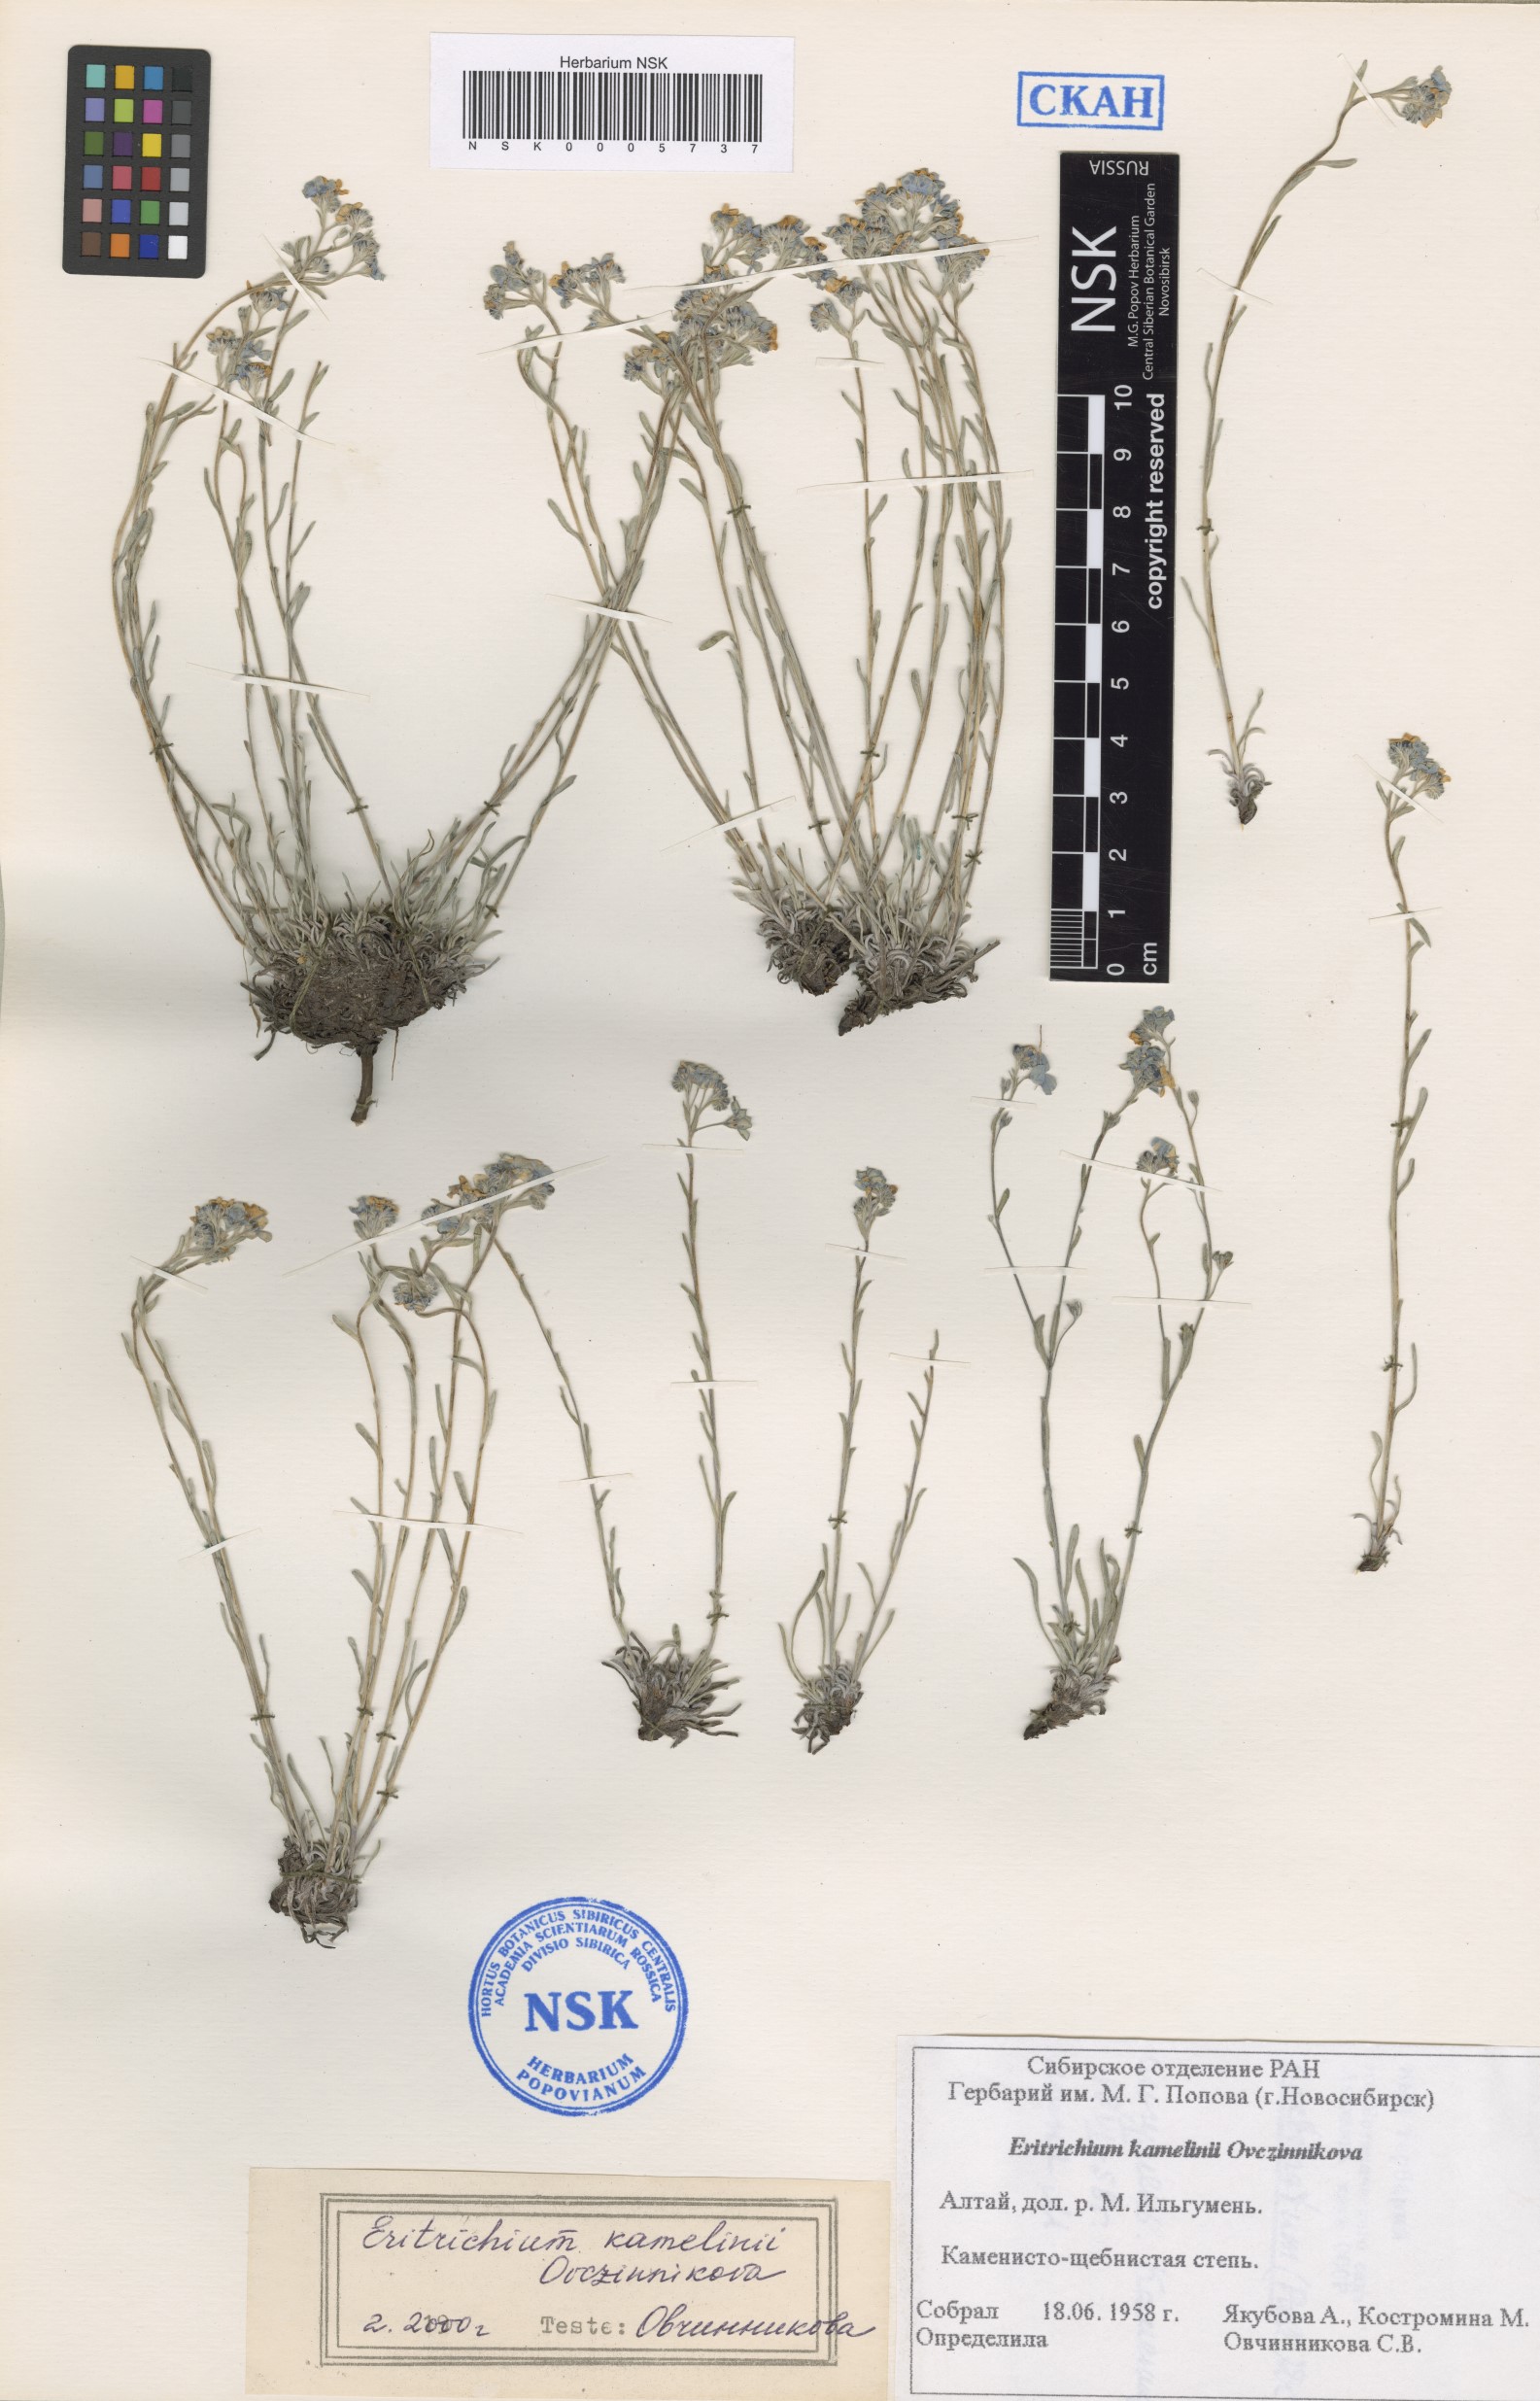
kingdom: Plantae
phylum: Tracheophyta
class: Magnoliopsida
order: Boraginales
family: Boraginaceae
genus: Eritrichium
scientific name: Eritrichium kamelinii
